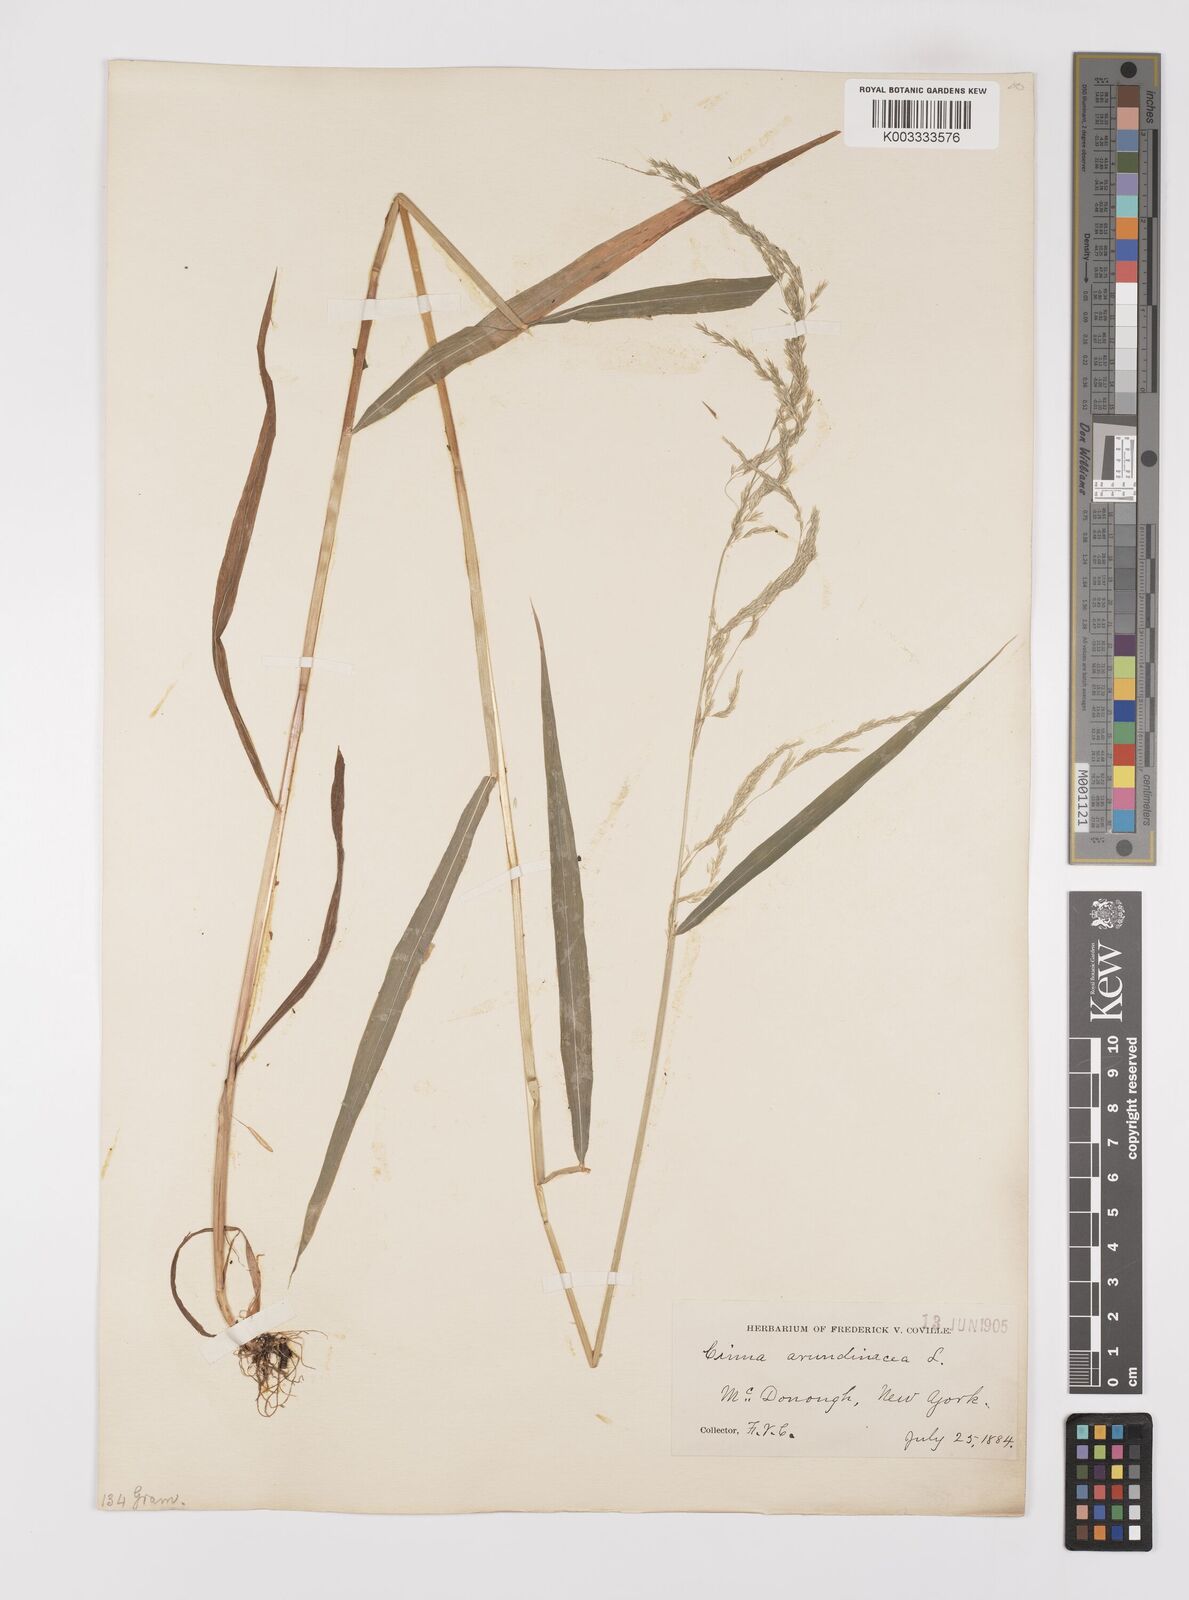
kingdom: Plantae
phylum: Tracheophyta
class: Liliopsida
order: Poales
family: Poaceae
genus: Cinna
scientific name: Cinna latifolia
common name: Drooping woodreed
